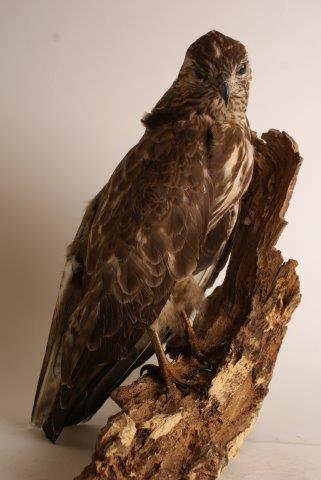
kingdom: Animalia
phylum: Chordata
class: Aves
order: Accipitriformes
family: Accipitridae
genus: Buteo
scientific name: Buteo buteo
